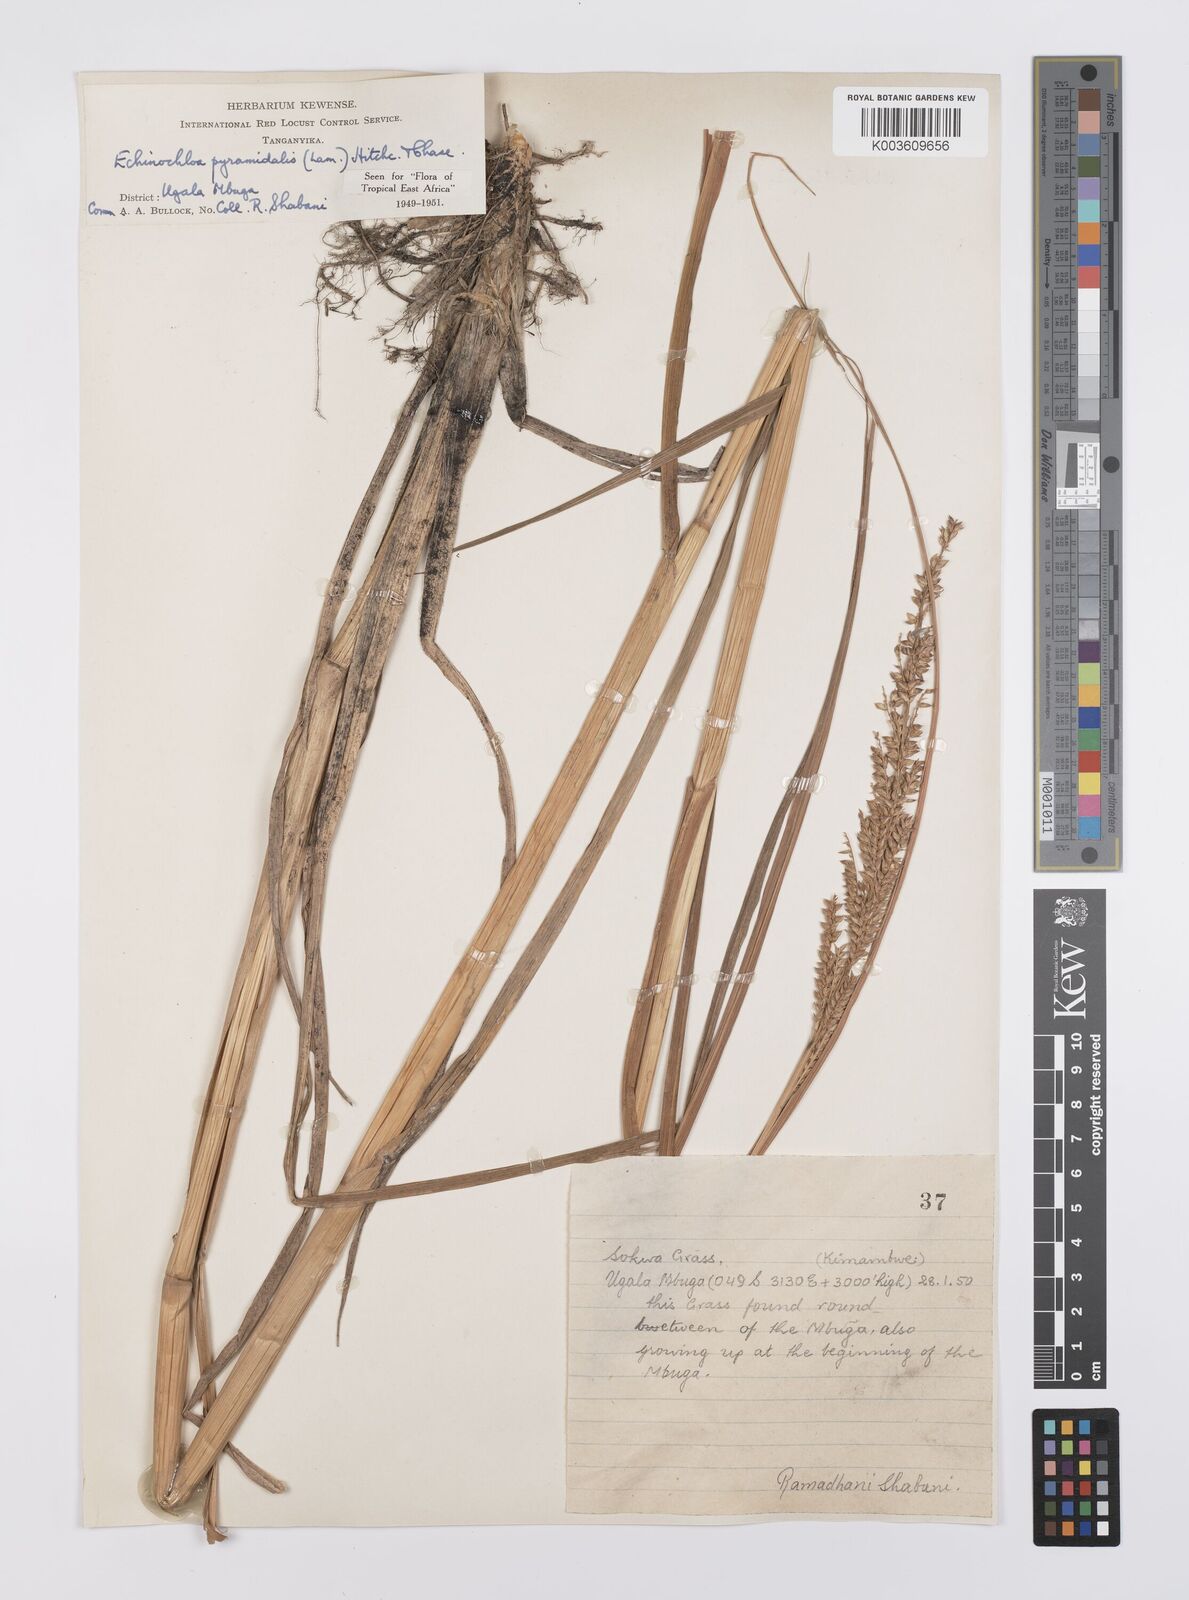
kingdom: Plantae
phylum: Tracheophyta
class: Liliopsida
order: Poales
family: Poaceae
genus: Echinochloa
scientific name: Echinochloa pyramidalis
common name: Antelope grass
